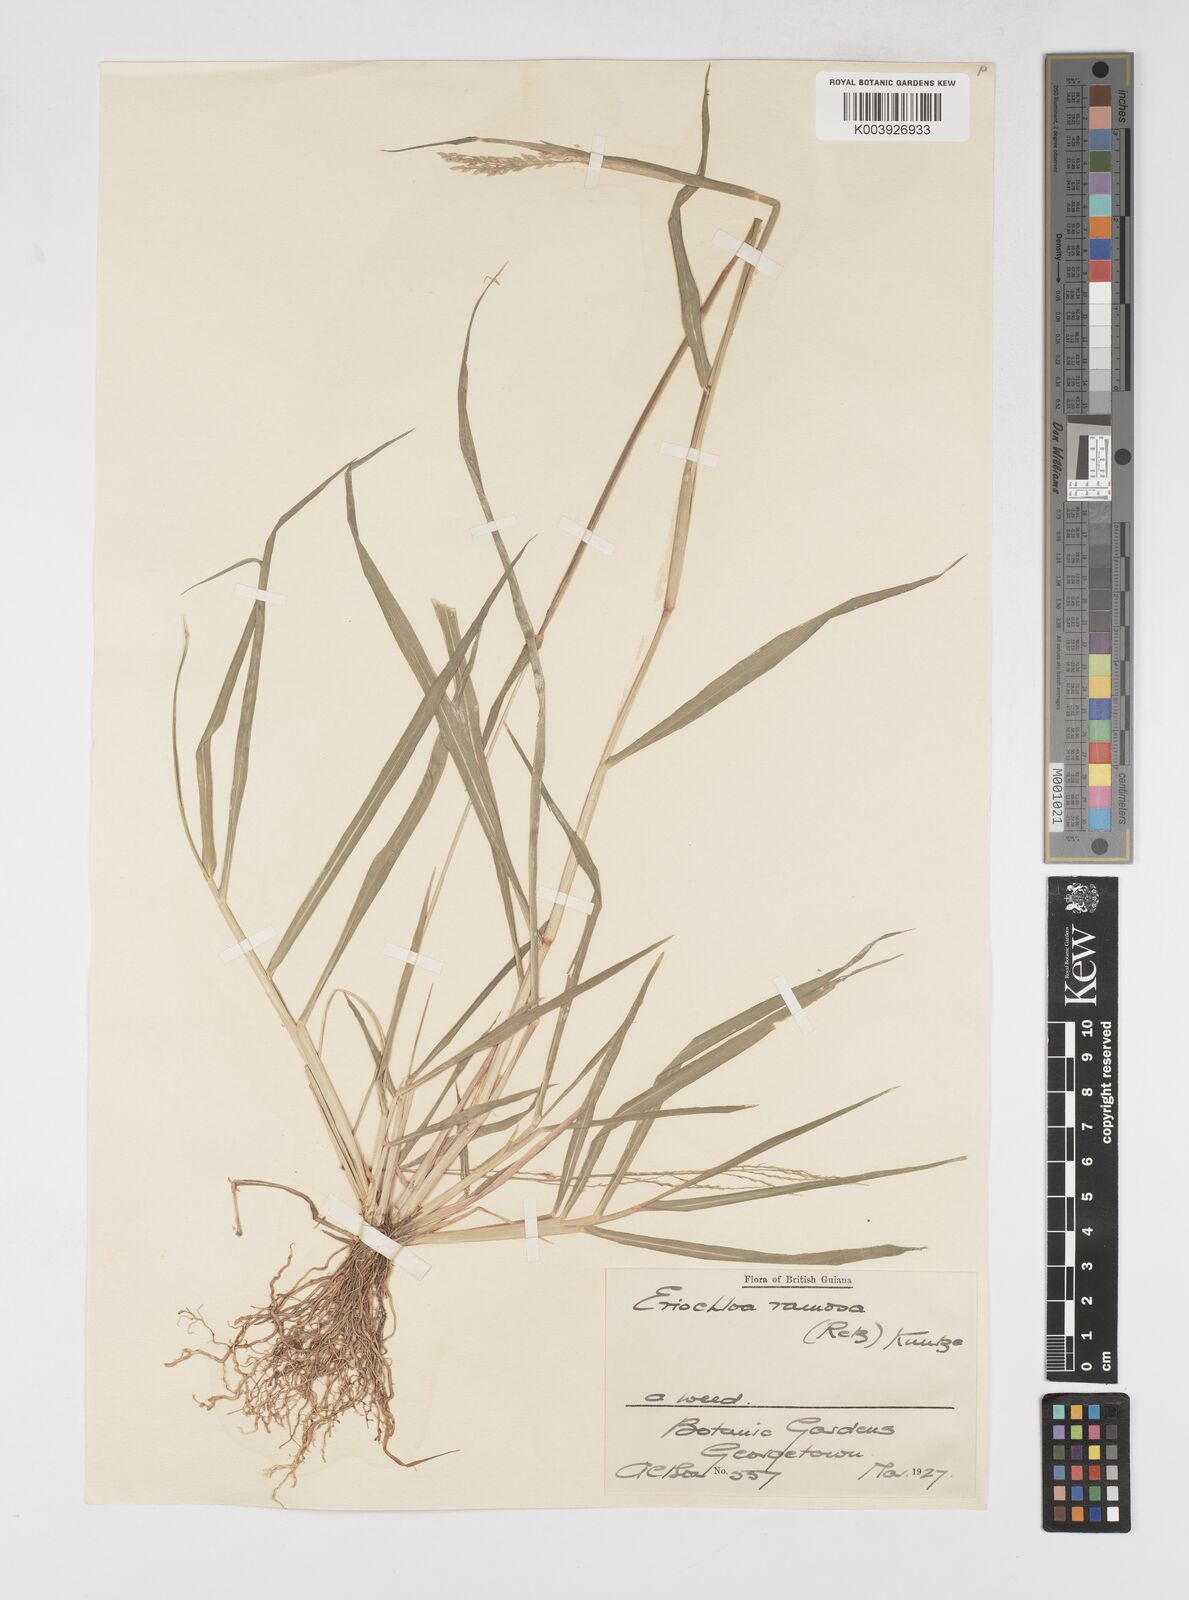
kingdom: Plantae
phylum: Tracheophyta
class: Liliopsida
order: Poales
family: Poaceae
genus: Eriochloa
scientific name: Eriochloa procera
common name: Spring grass
